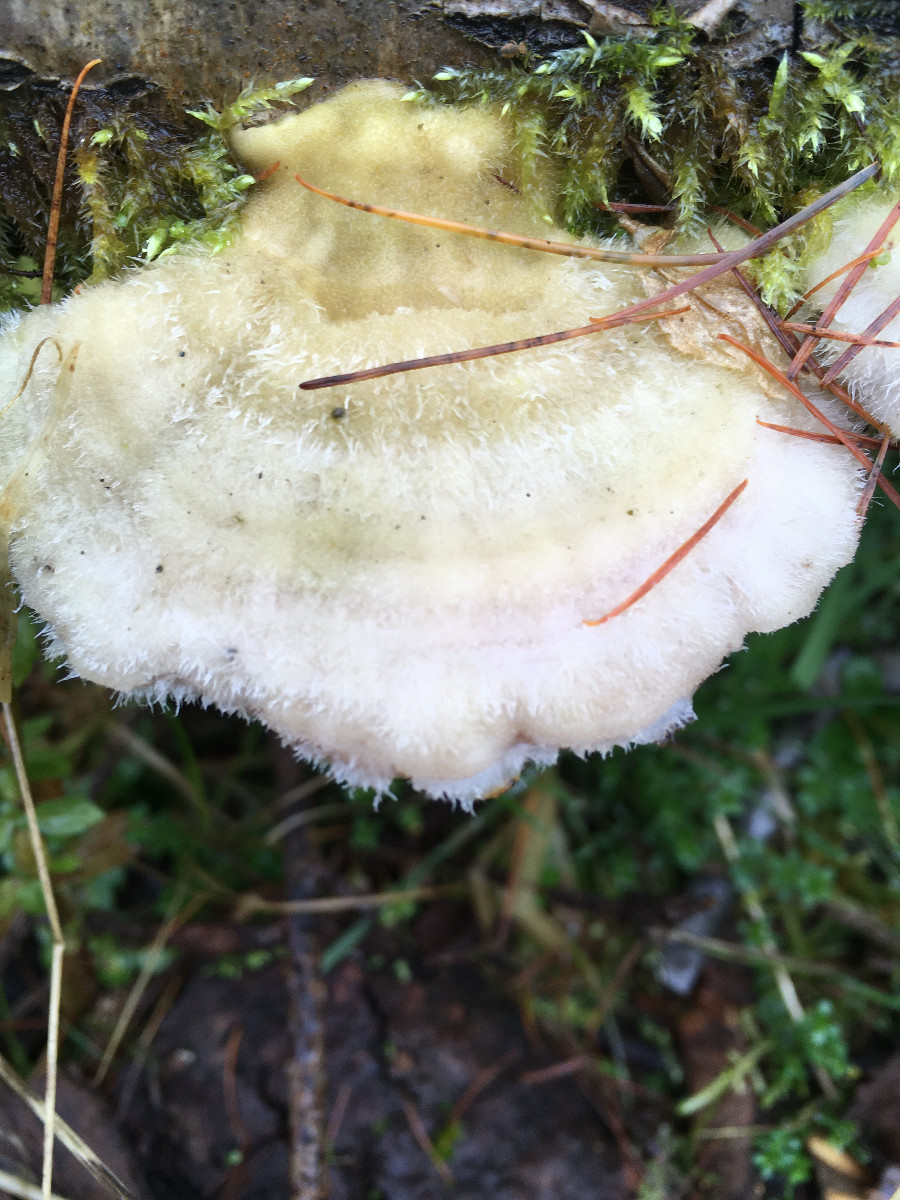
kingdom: Fungi
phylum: Basidiomycota
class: Agaricomycetes
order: Polyporales
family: Polyporaceae
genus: Trametes
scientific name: Trametes hirsuta
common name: håret læderporesvamp
